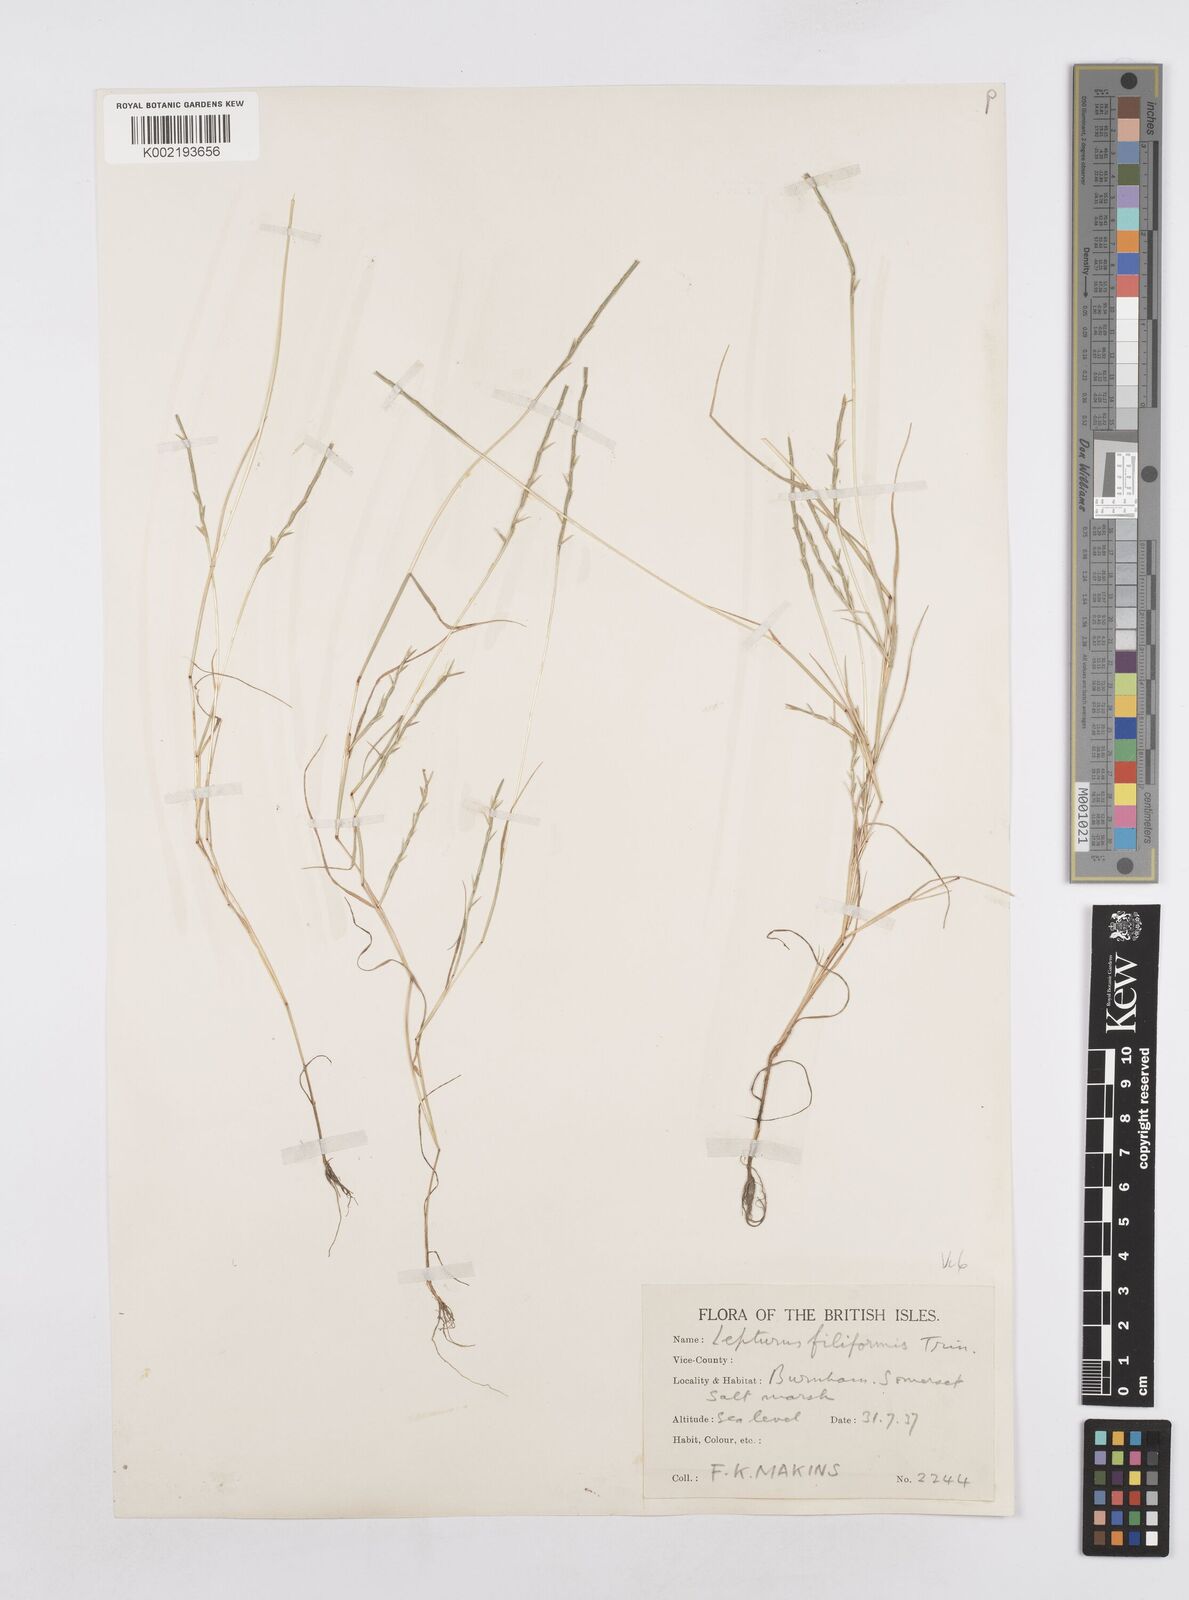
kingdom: Plantae
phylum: Tracheophyta
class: Liliopsida
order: Poales
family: Poaceae
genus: Parapholis
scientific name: Parapholis strigosa
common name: Hard-grass
